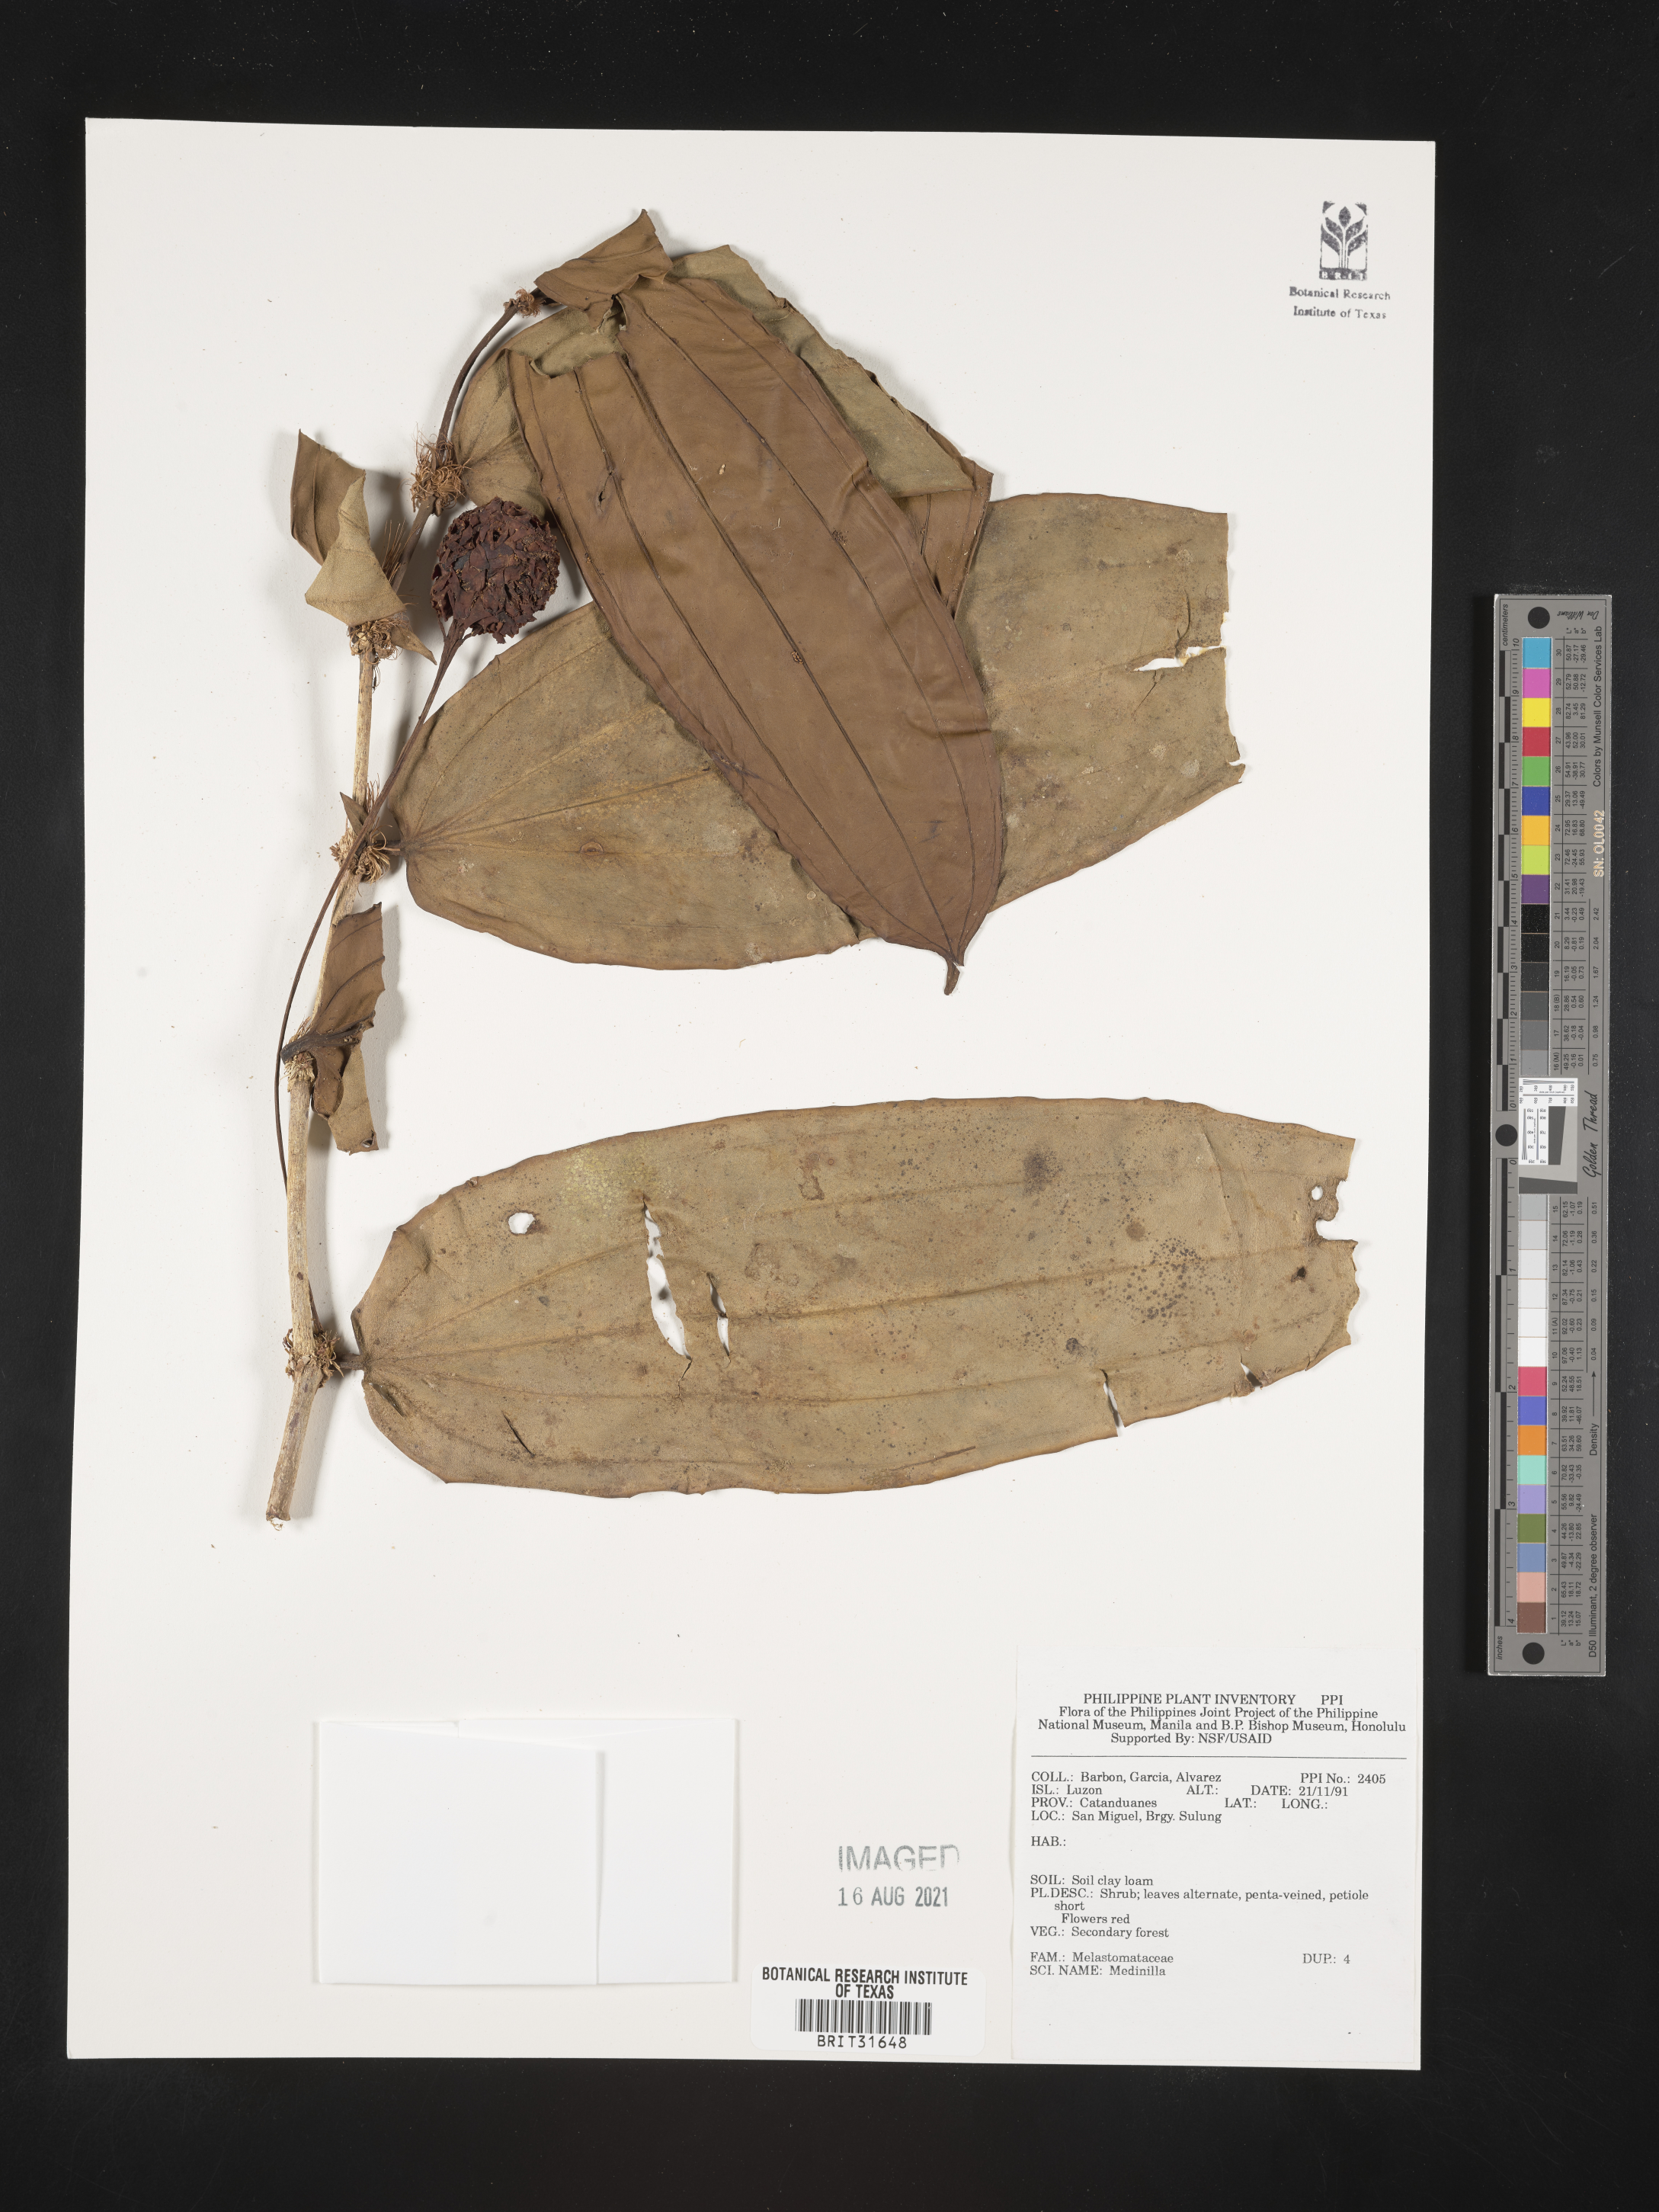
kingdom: Plantae
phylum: Tracheophyta
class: Magnoliopsida
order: Myrtales
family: Melastomataceae
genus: Medinilla
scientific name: Medinilla
